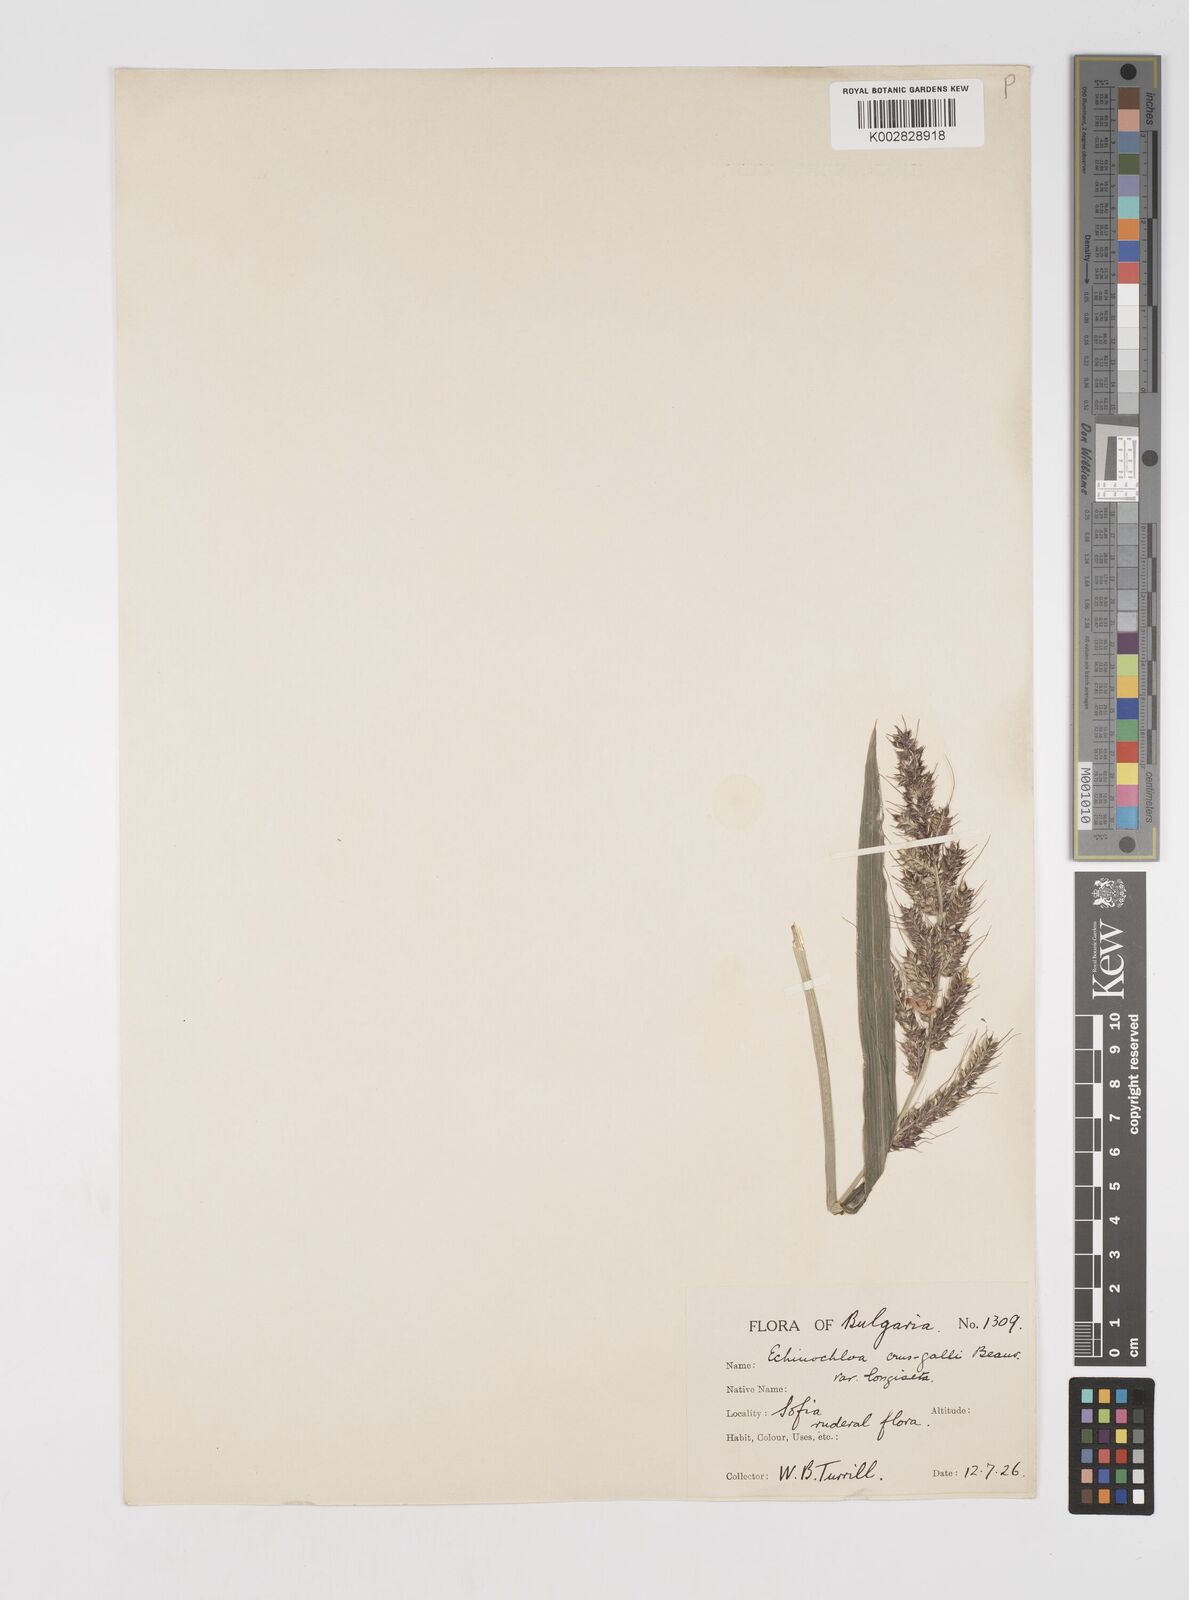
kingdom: Plantae
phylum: Tracheophyta
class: Liliopsida
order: Poales
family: Poaceae
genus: Echinochloa
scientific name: Echinochloa crus-galli
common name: Cockspur
